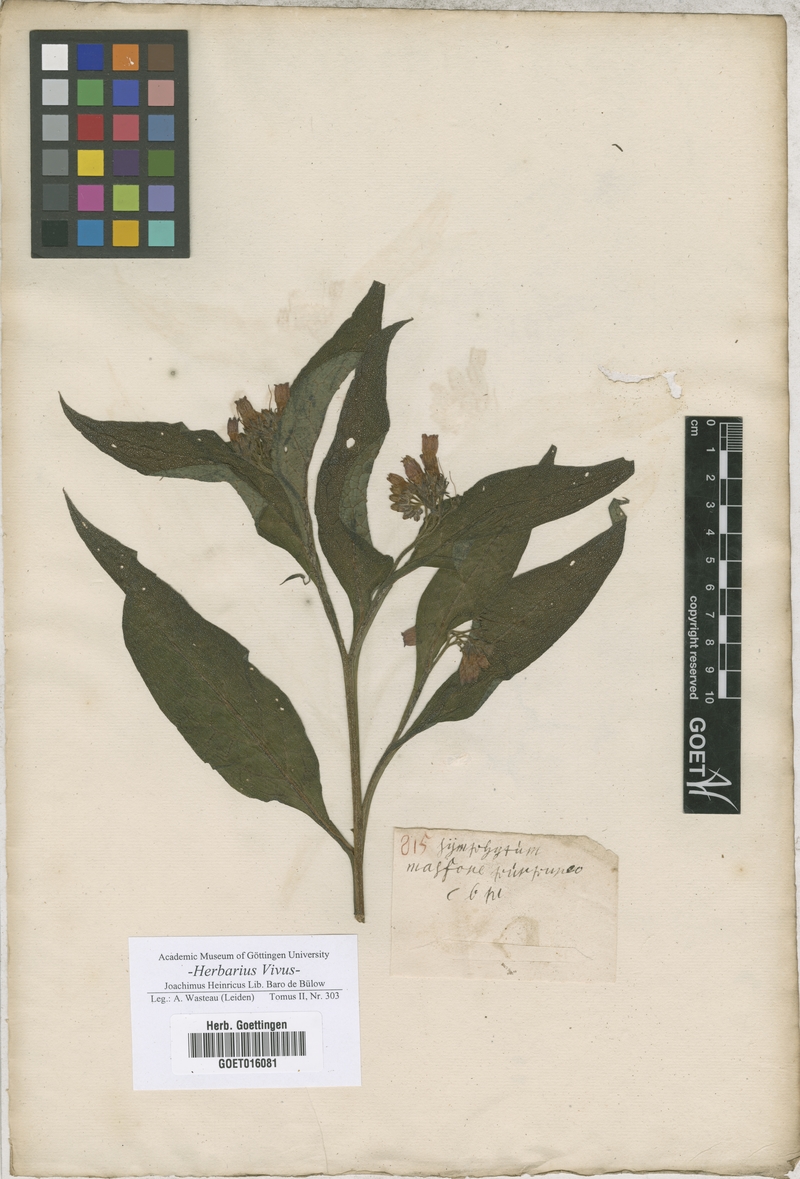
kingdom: Plantae
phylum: Tracheophyta
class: Magnoliopsida
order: Boraginales
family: Boraginaceae
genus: Symphytum
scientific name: Symphytum officinale
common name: Common comfrey
